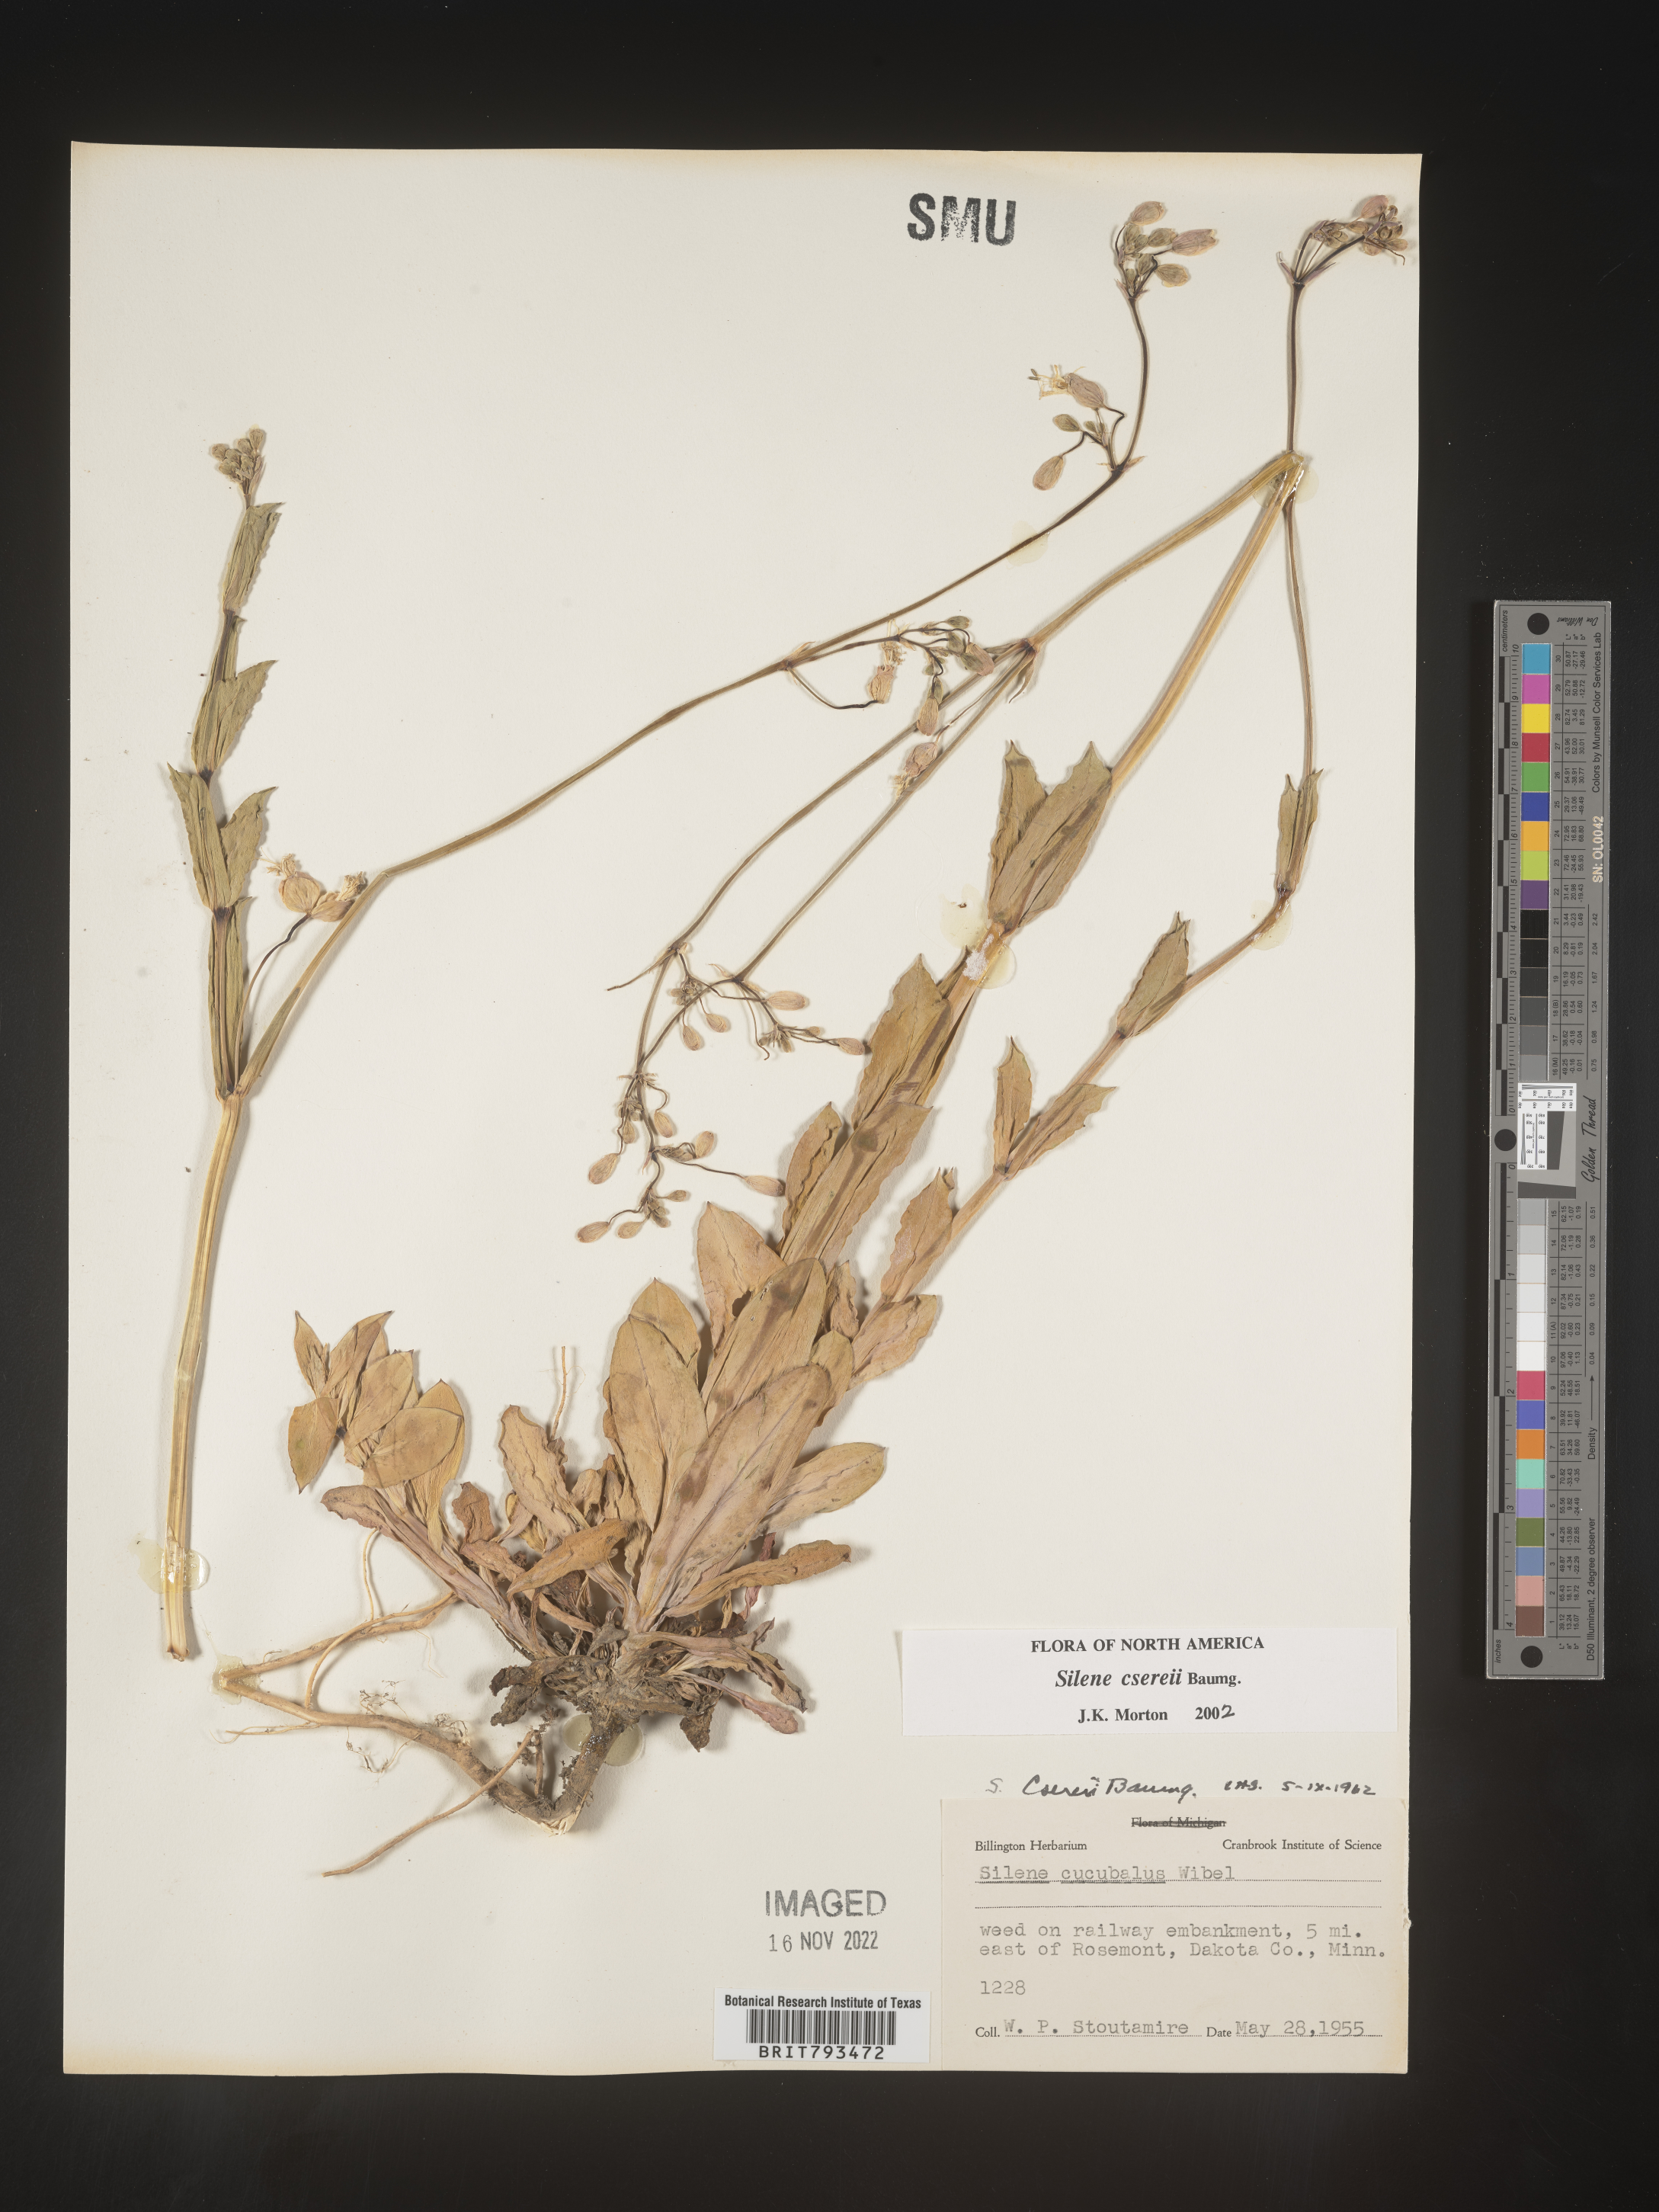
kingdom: Plantae
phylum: Tracheophyta
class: Magnoliopsida
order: Caryophyllales
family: Caryophyllaceae
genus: Silene
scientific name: Silene csereii
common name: Balkan catchfly
